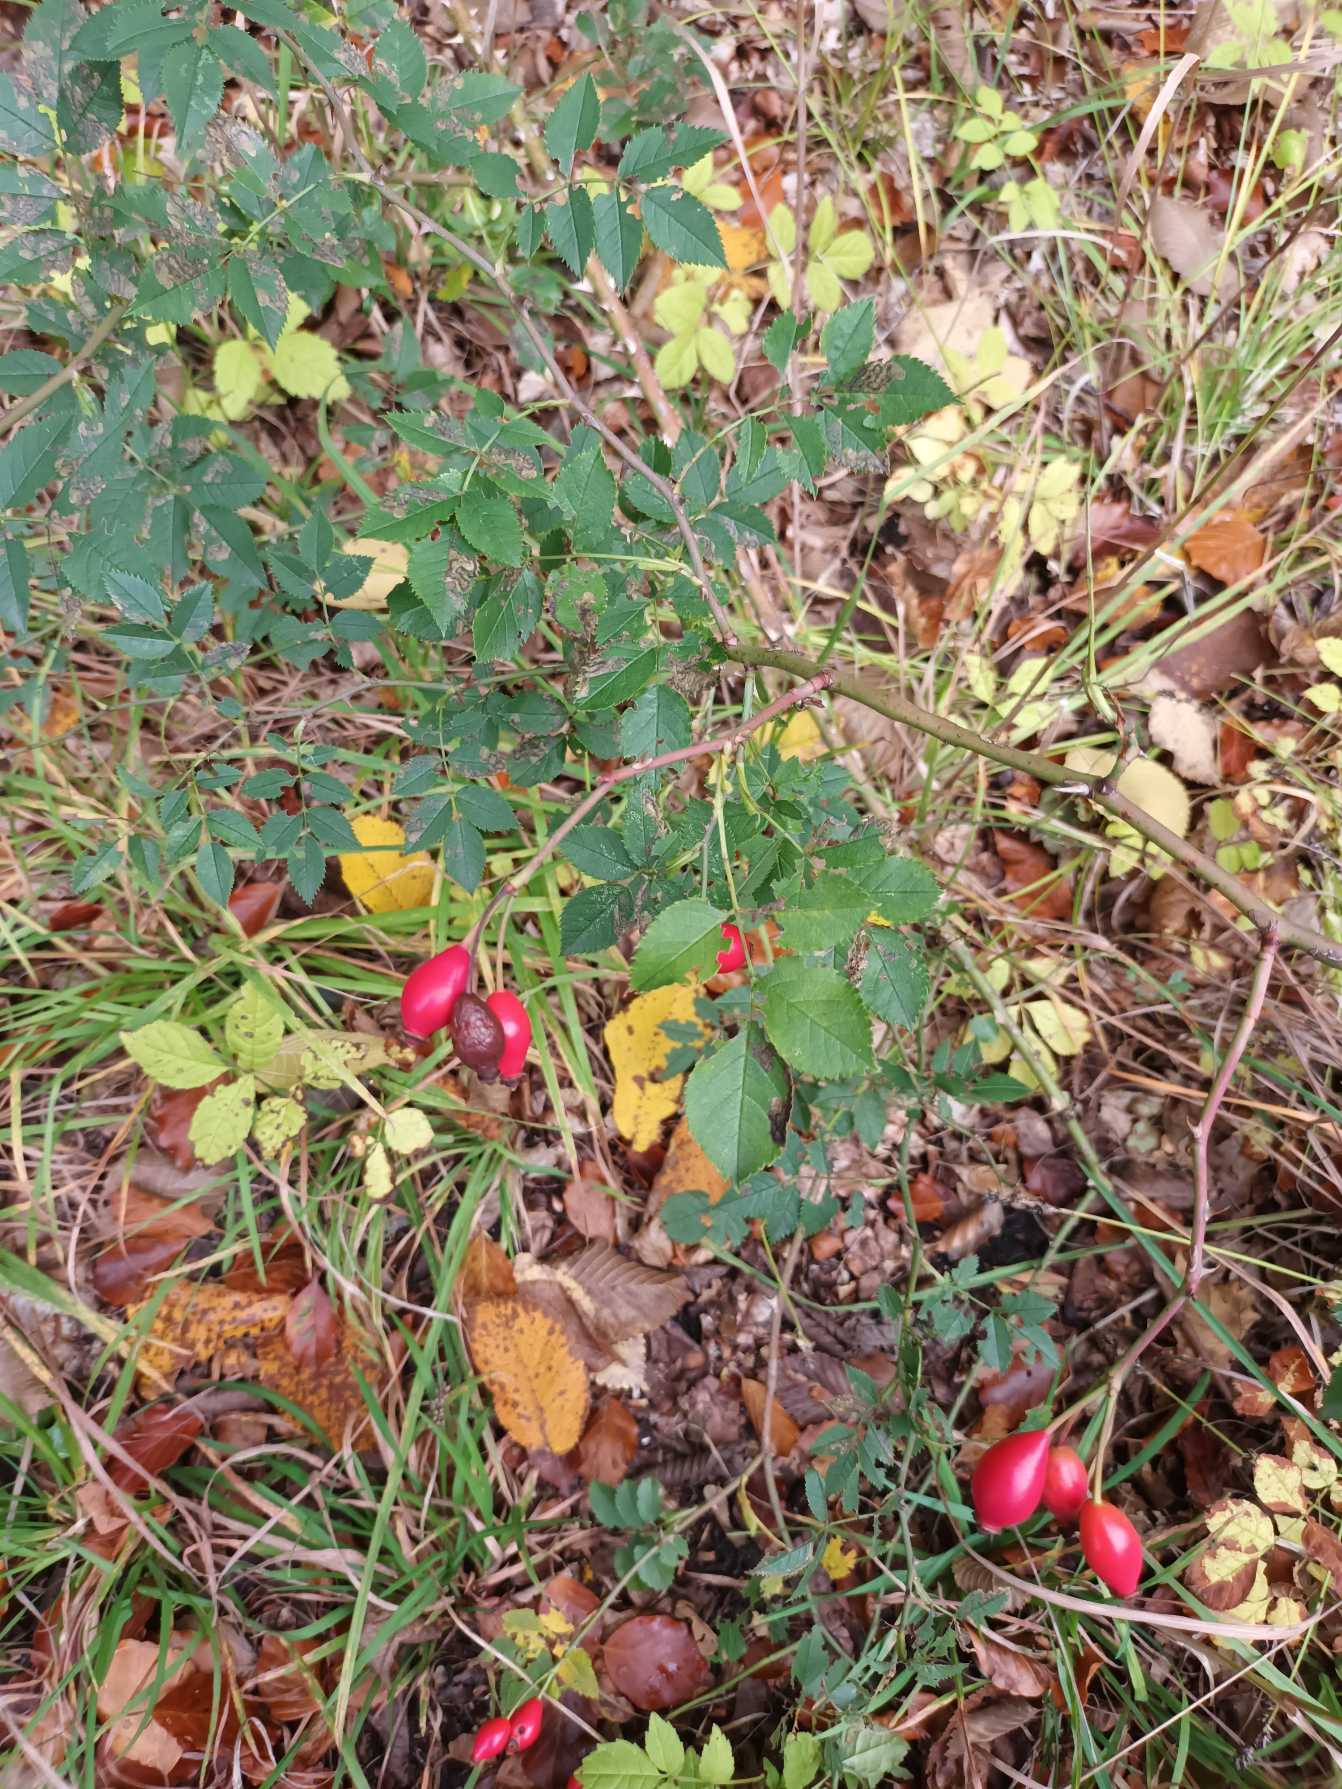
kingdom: Plantae
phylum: Tracheophyta
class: Magnoliopsida
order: Rosales
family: Rosaceae
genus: Rosa
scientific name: Rosa canina
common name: Glat hunde-rose
